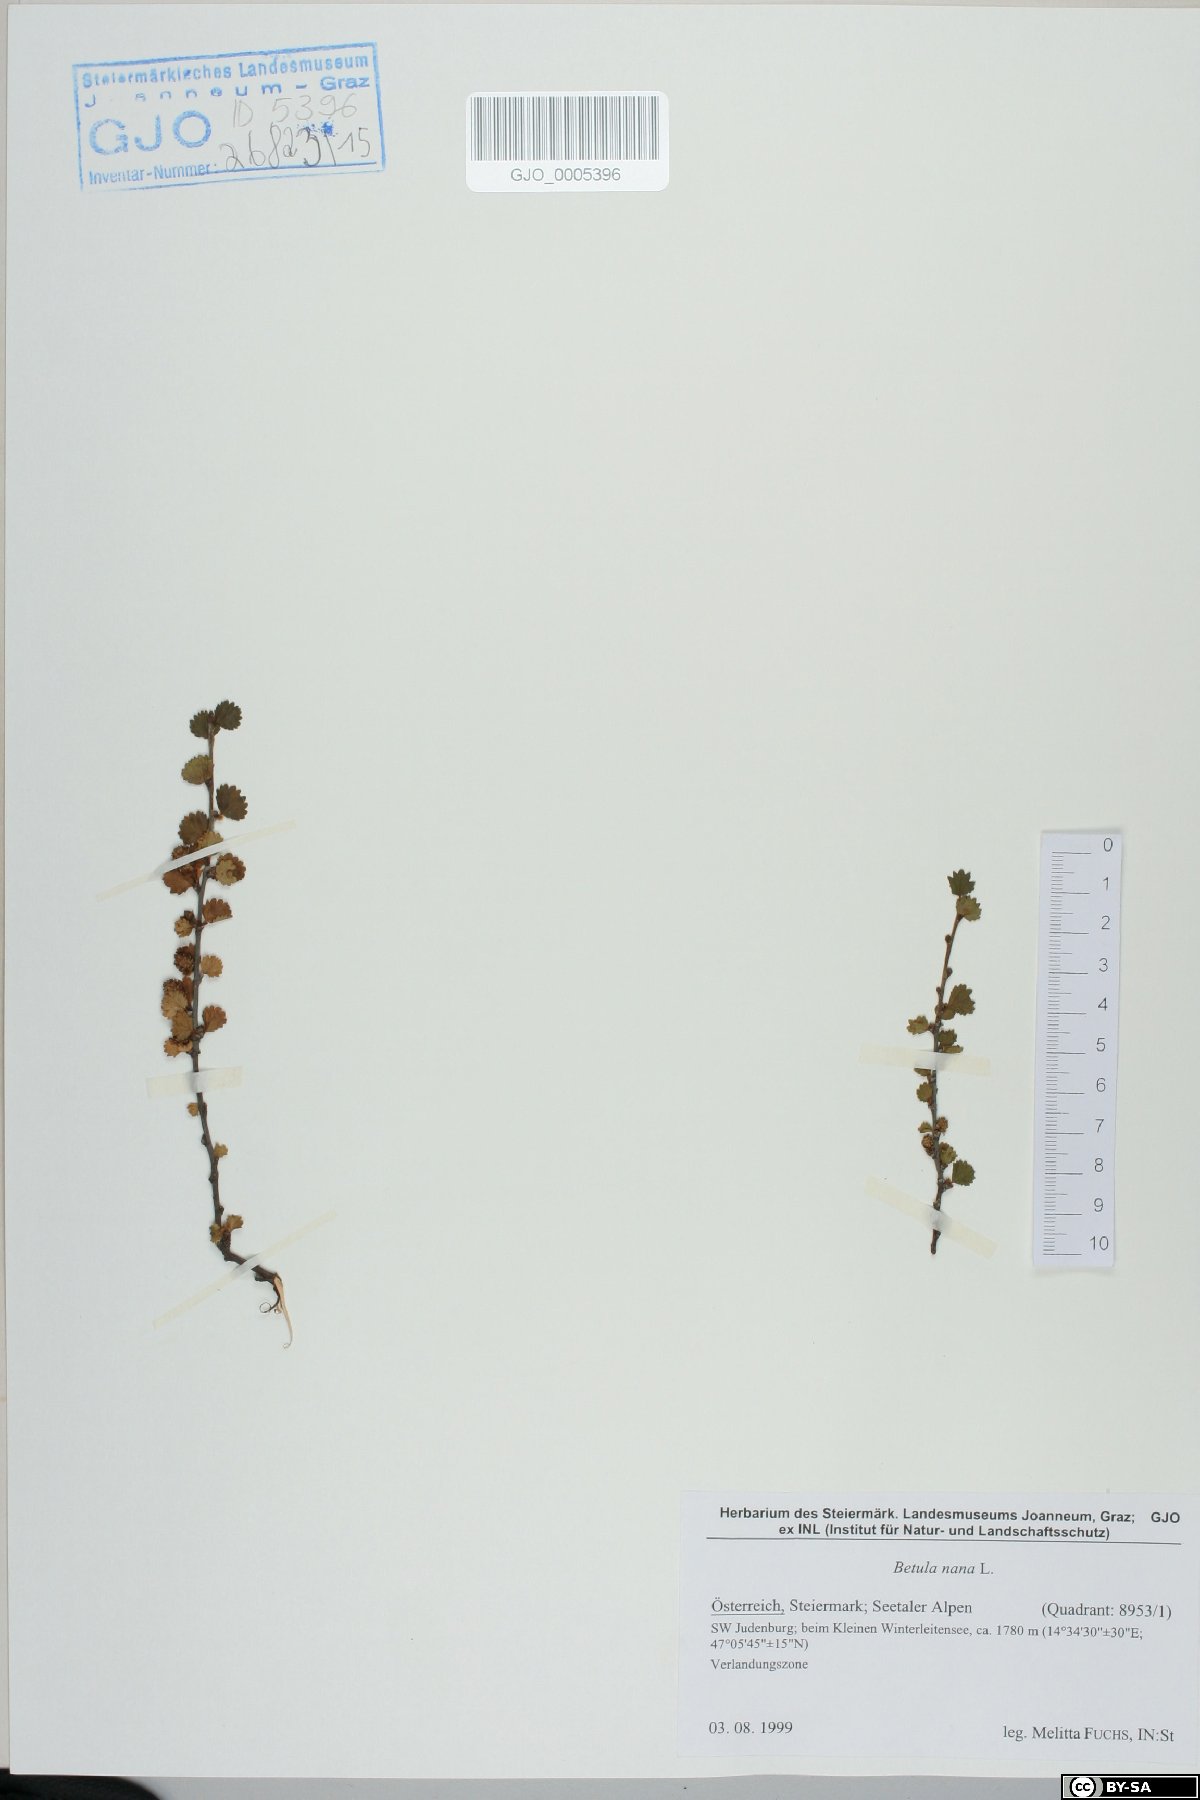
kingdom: Plantae
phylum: Tracheophyta
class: Magnoliopsida
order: Fagales
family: Betulaceae
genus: Betula
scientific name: Betula nana
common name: Arctic dwarf birch
